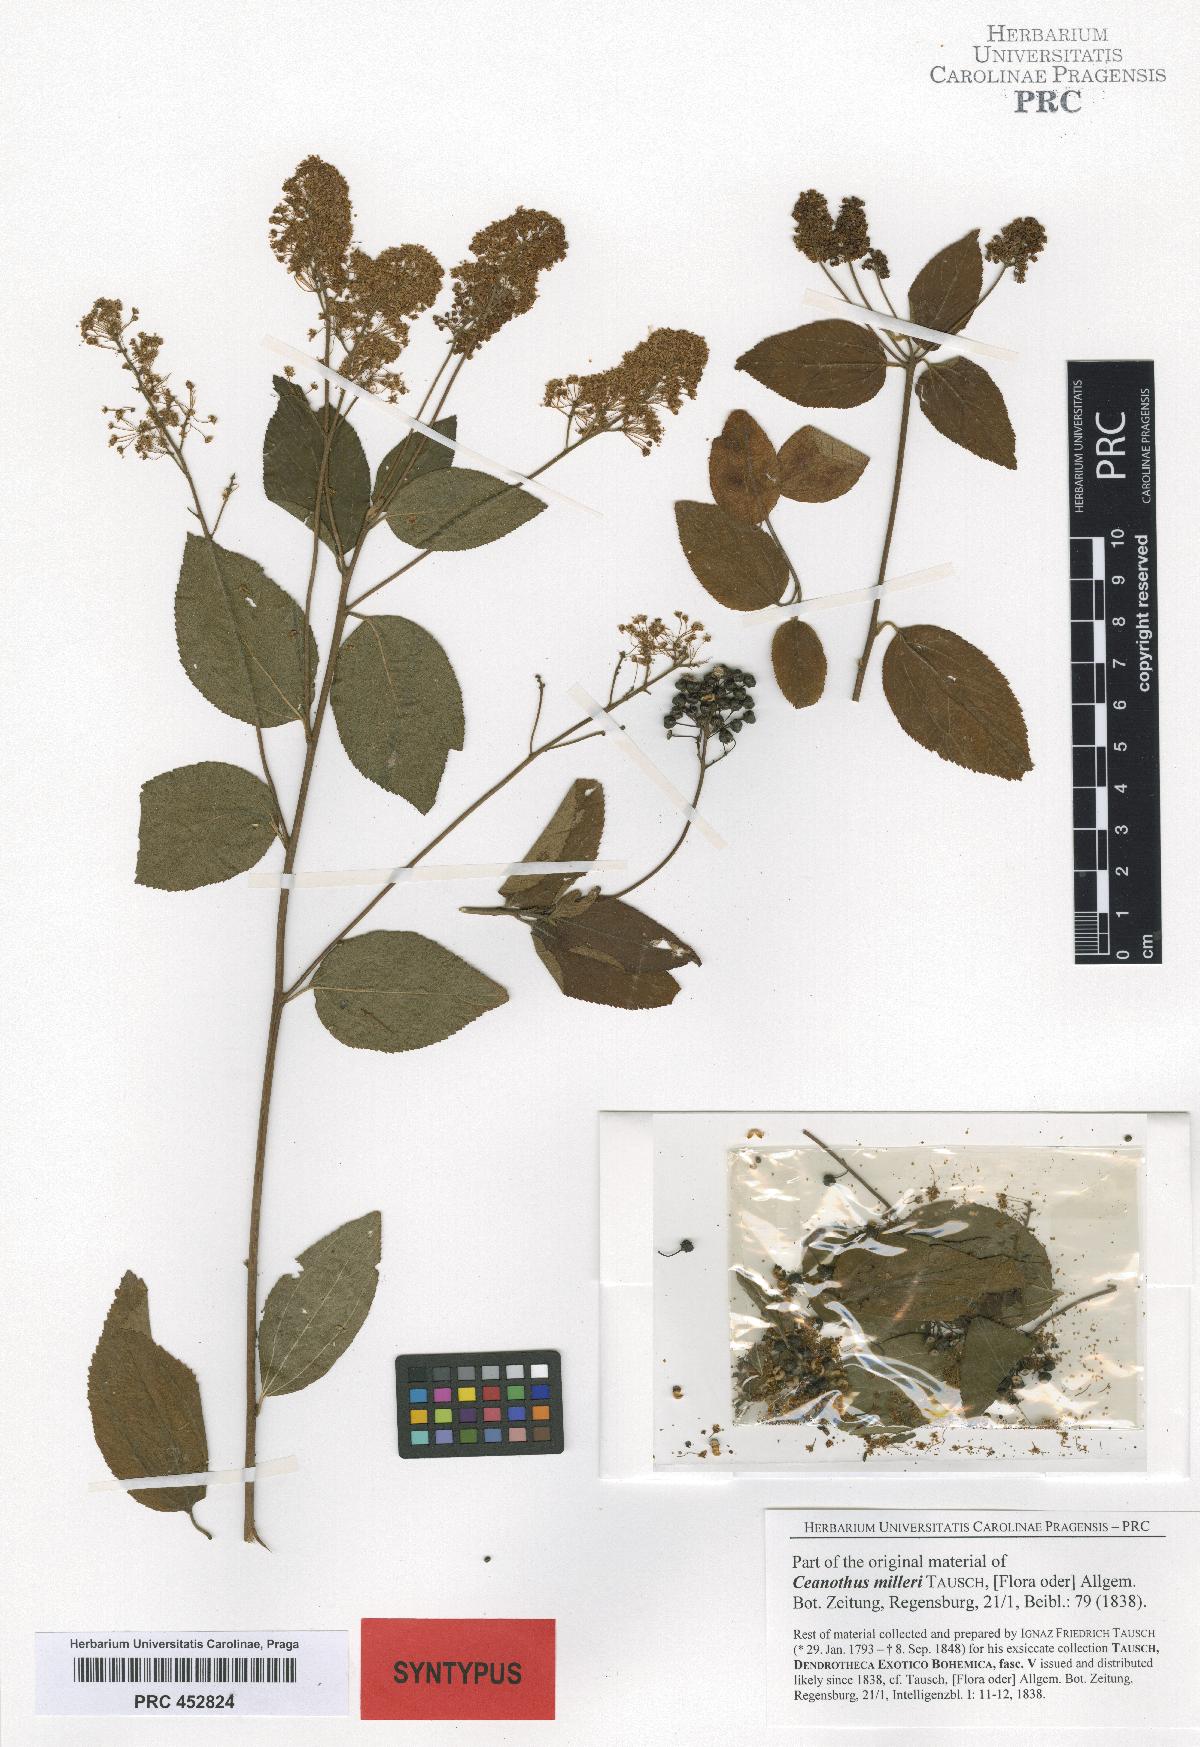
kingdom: Plantae
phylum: Tracheophyta
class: Magnoliopsida
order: Rosales
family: Rhamnaceae
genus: Ceanothus
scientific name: Ceanothus americanus
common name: Redroot
